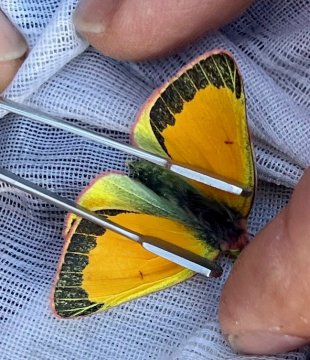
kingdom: Animalia
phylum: Arthropoda
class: Insecta
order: Lepidoptera
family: Pieridae
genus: Colias
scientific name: Colias canadensis
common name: Canadian Sulphur
